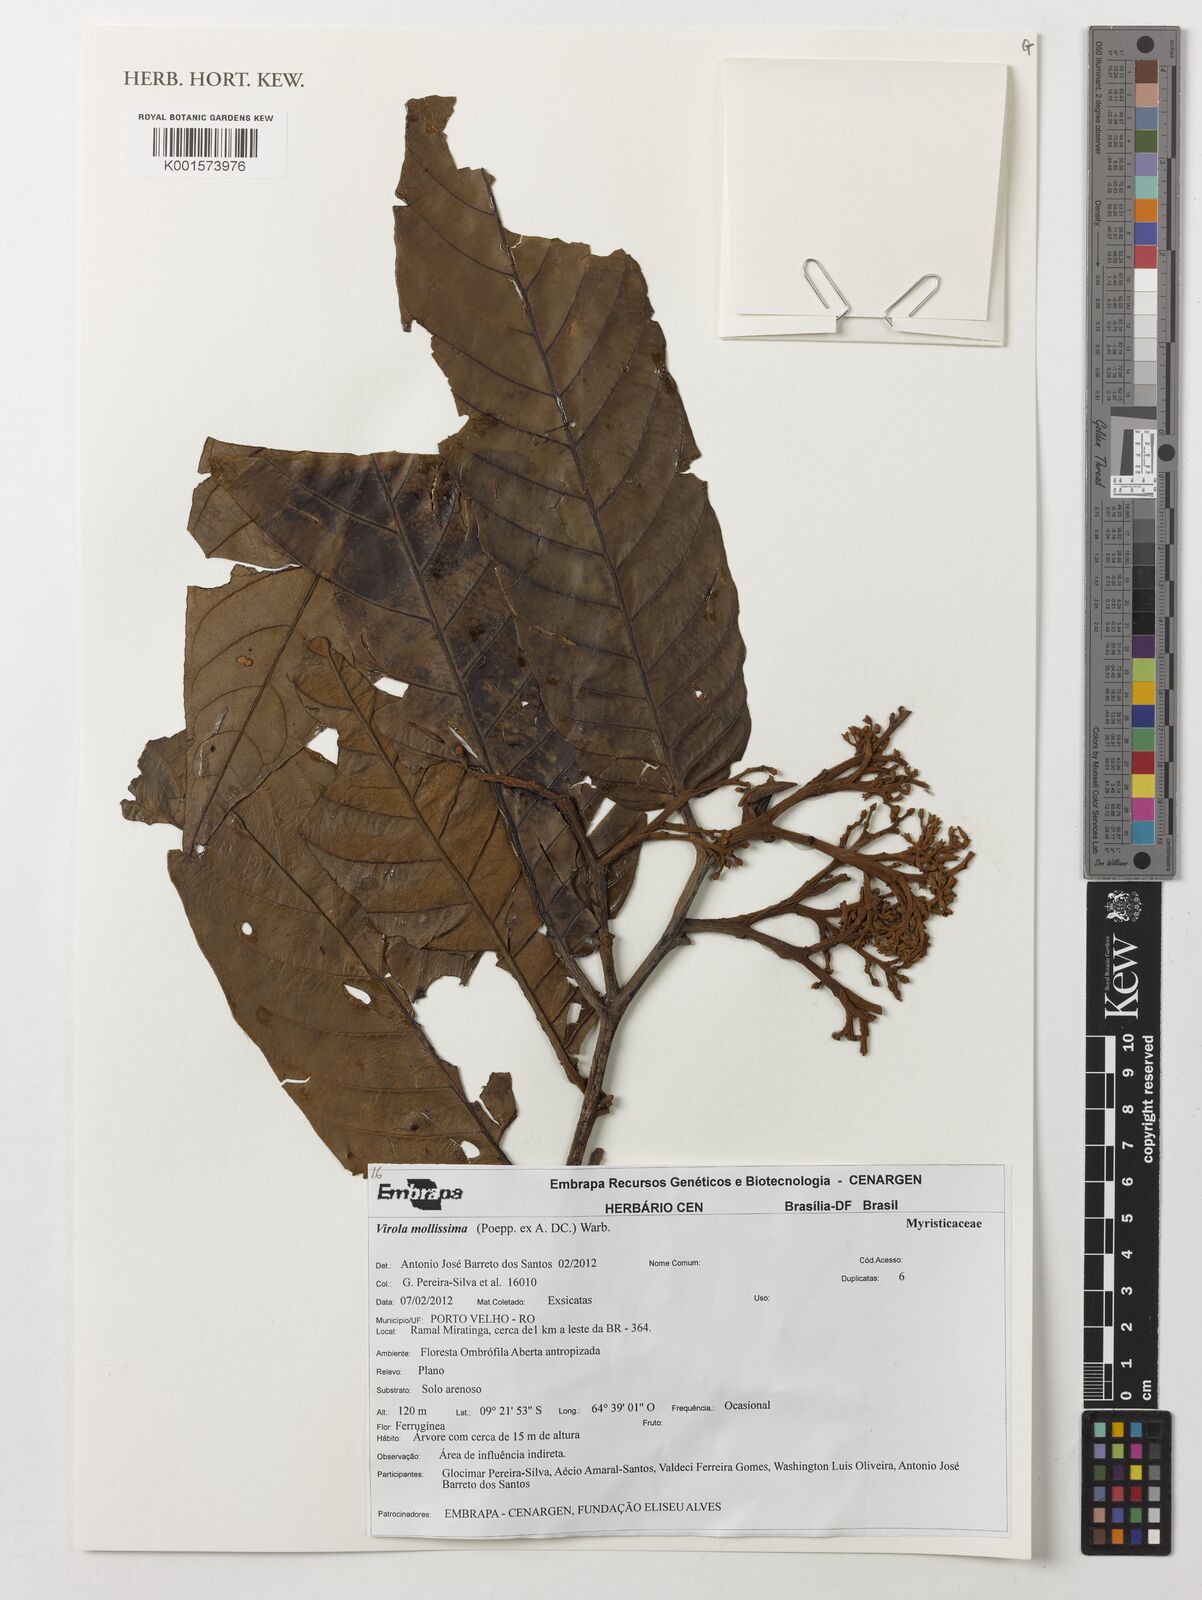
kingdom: Plantae
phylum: Tracheophyta
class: Magnoliopsida
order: Magnoliales
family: Myristicaceae
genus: Virola
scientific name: Virola mollissima
